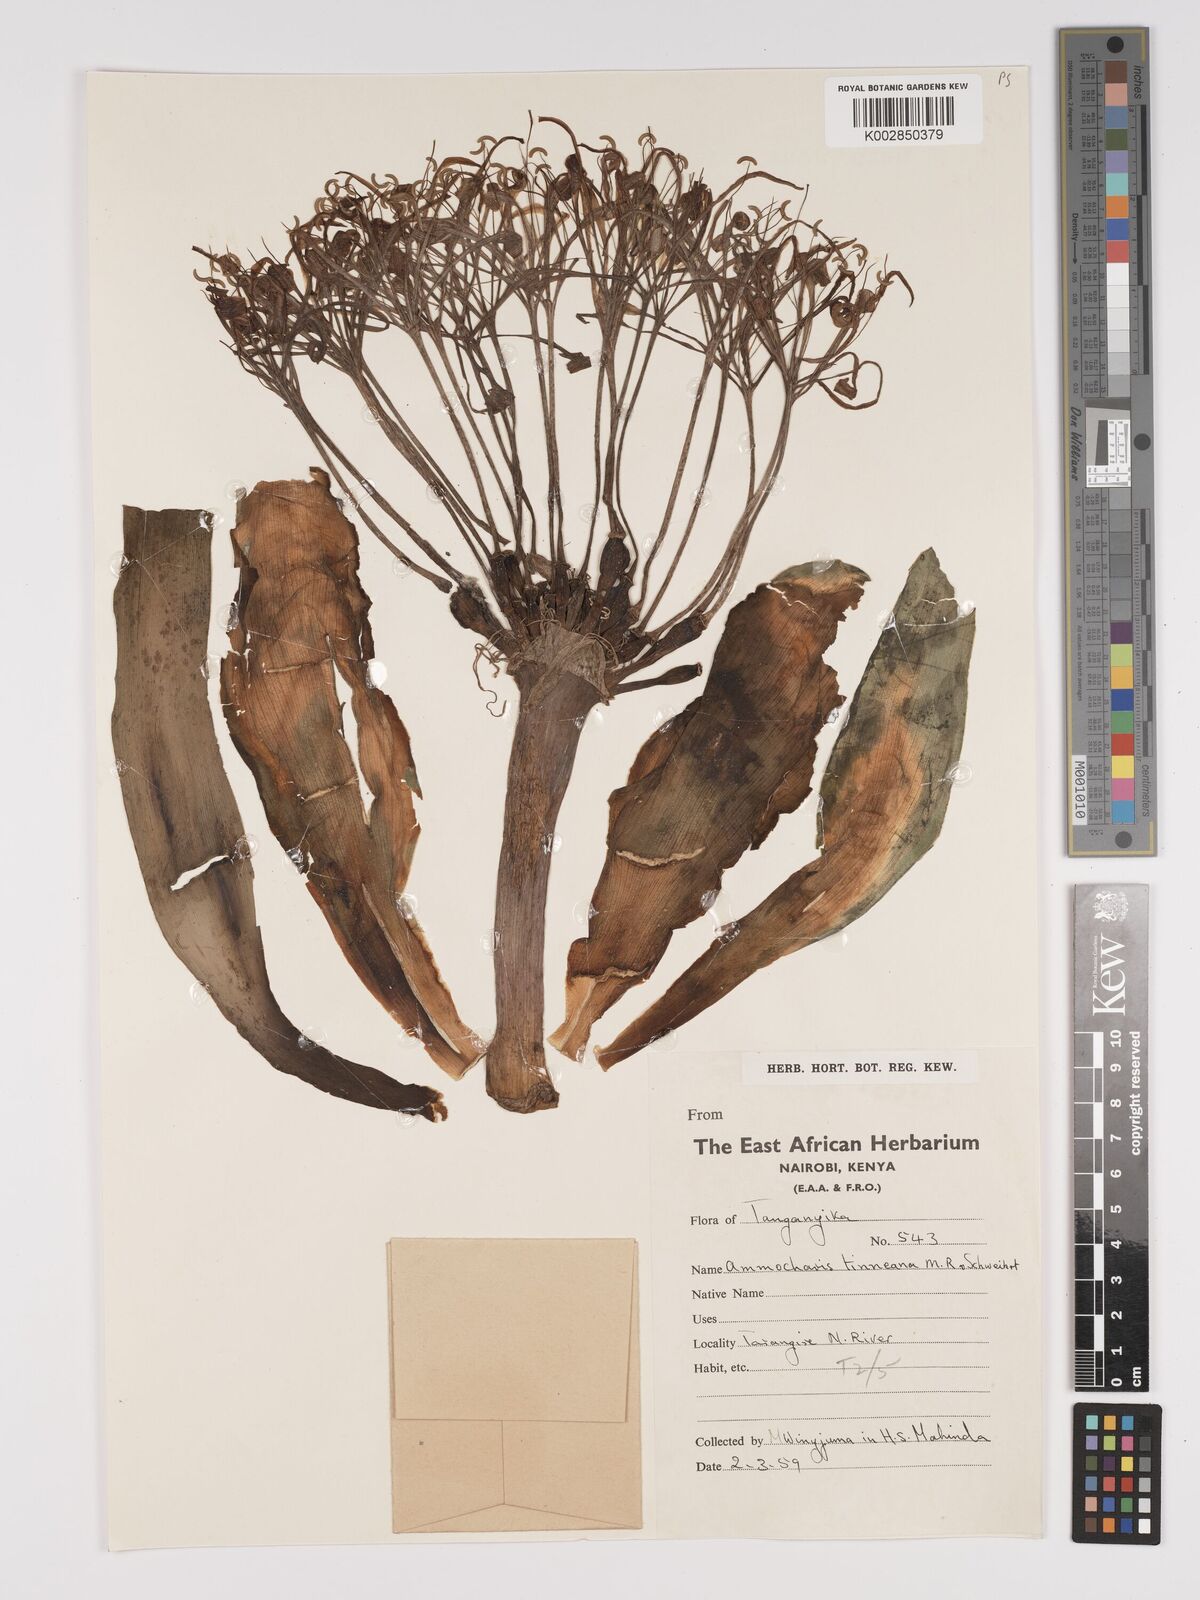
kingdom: Plantae
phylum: Tracheophyta
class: Liliopsida
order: Asparagales
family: Amaryllidaceae
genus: Ammocharis
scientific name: Ammocharis tinneana
